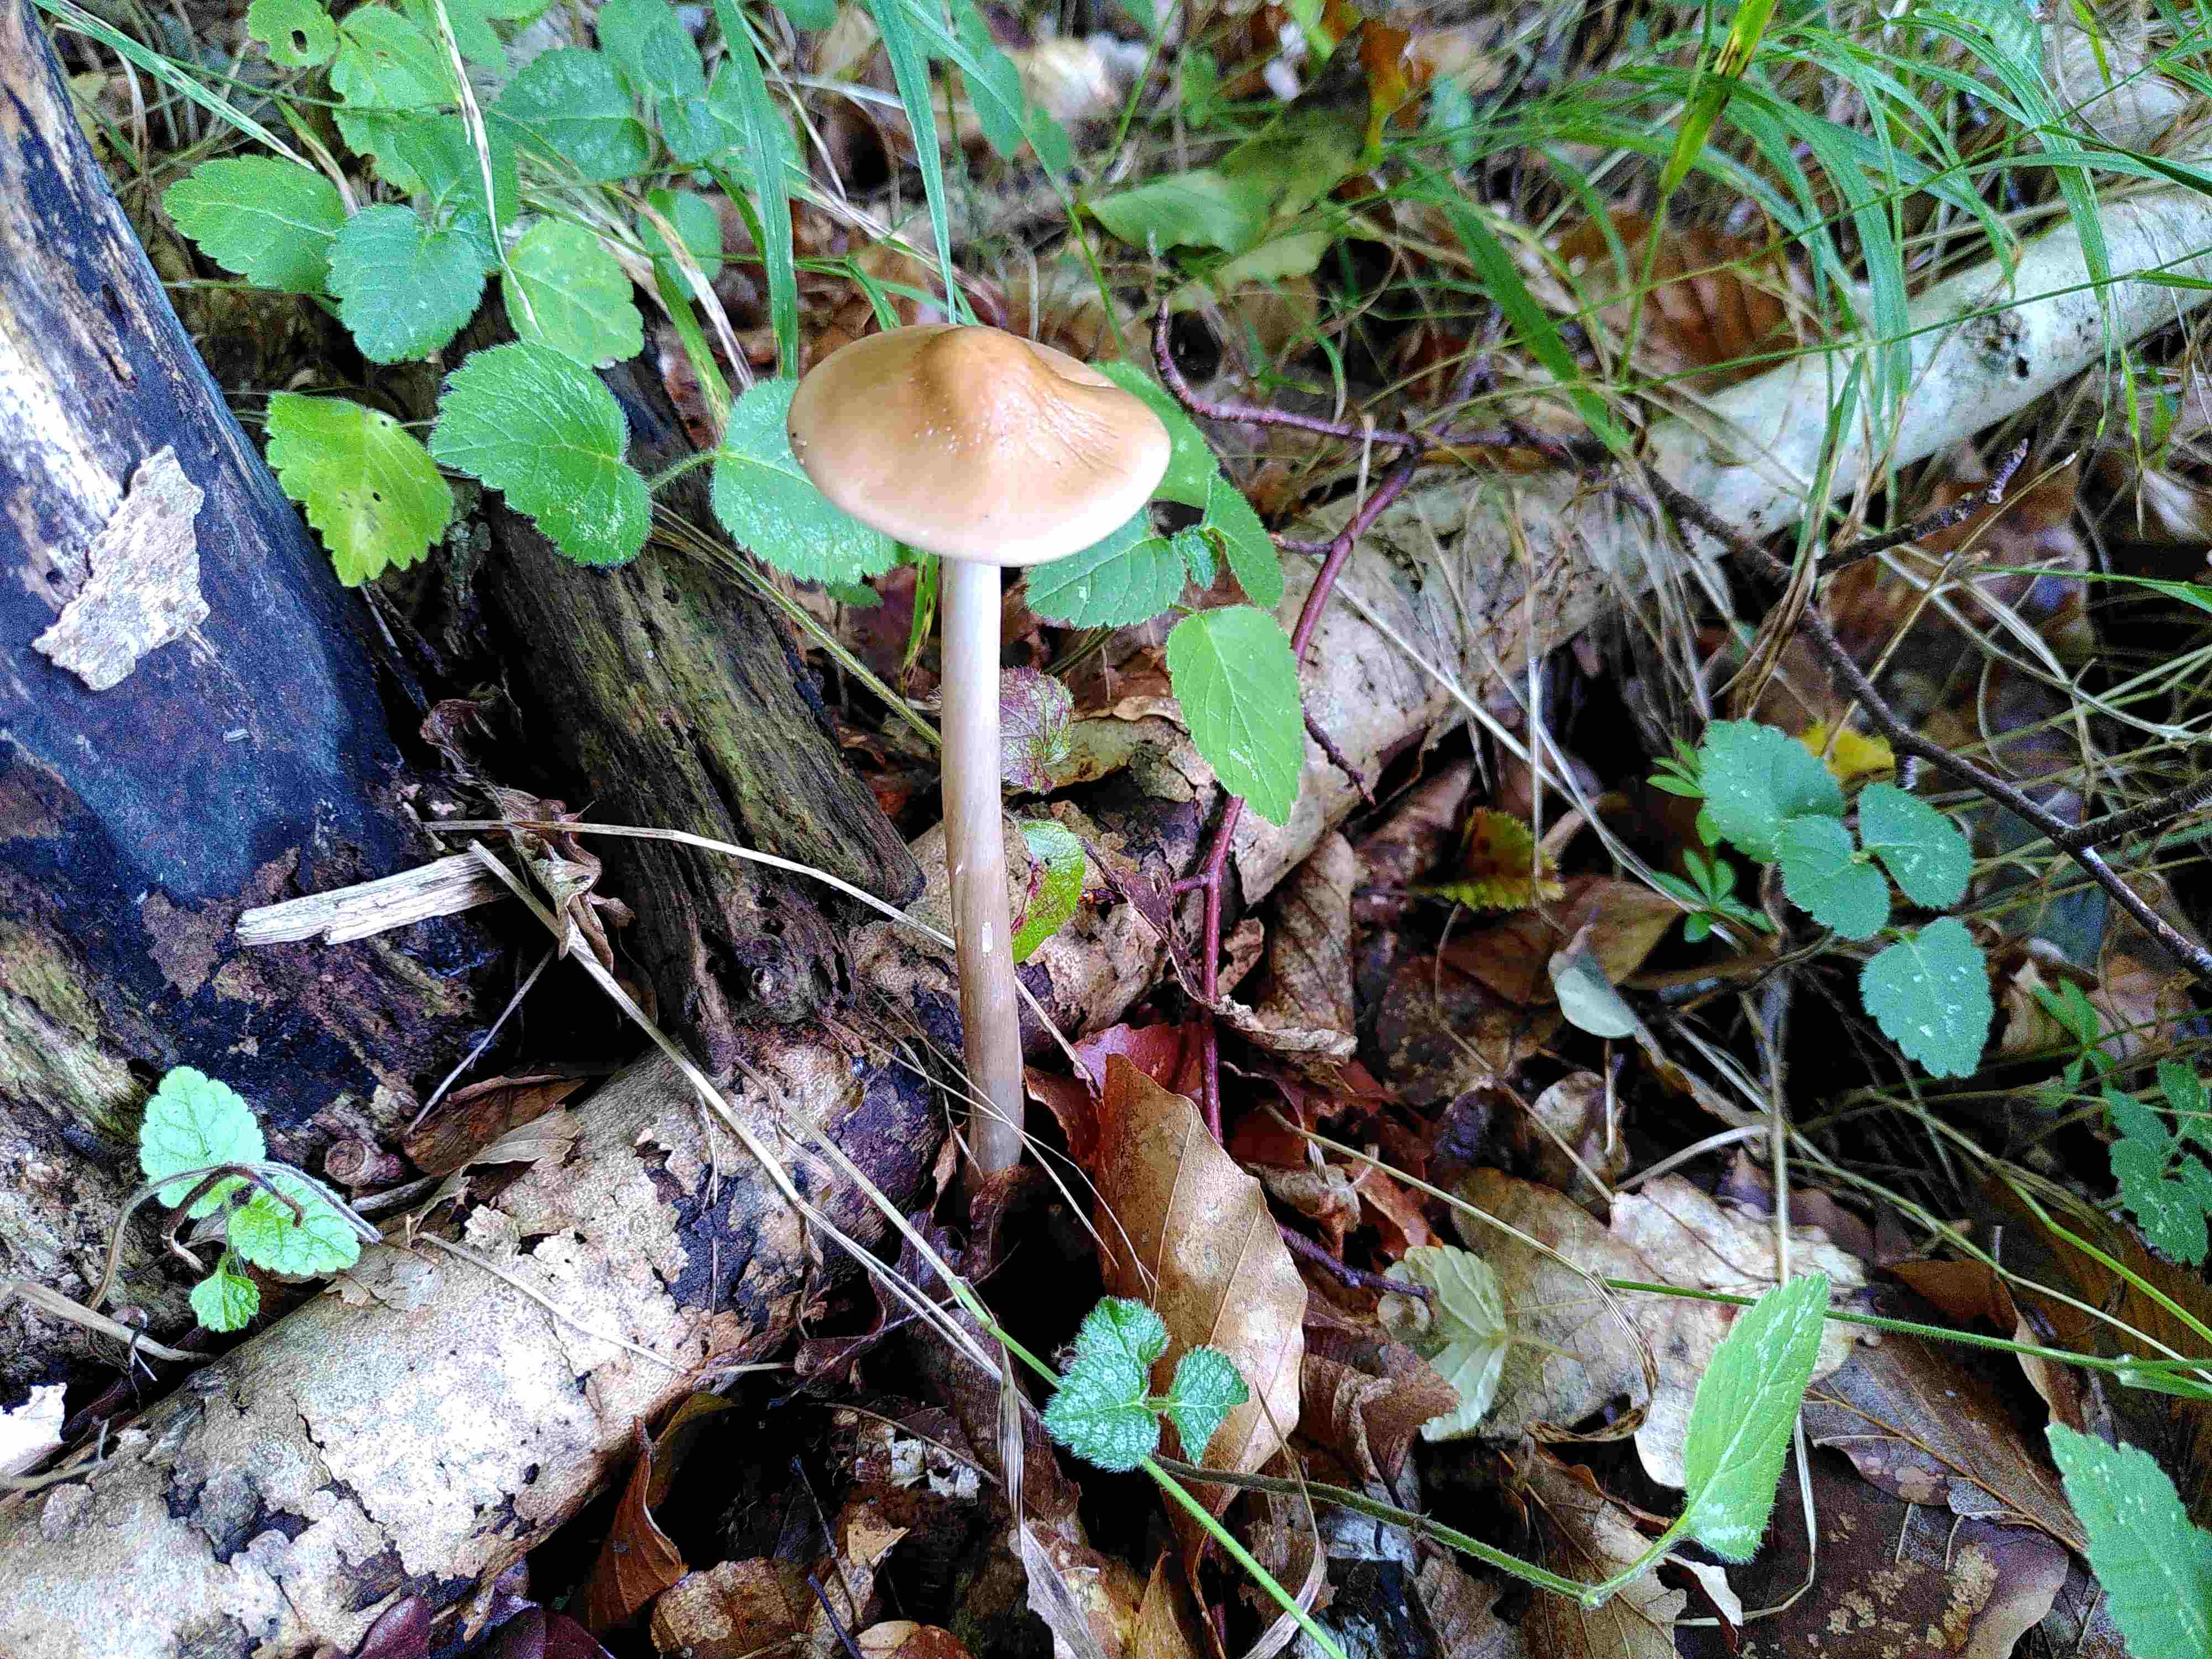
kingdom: Fungi
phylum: Basidiomycota
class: Agaricomycetes
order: Agaricales
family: Physalacriaceae
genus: Hymenopellis
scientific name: Hymenopellis radicata
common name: almindelig pælerodshat
